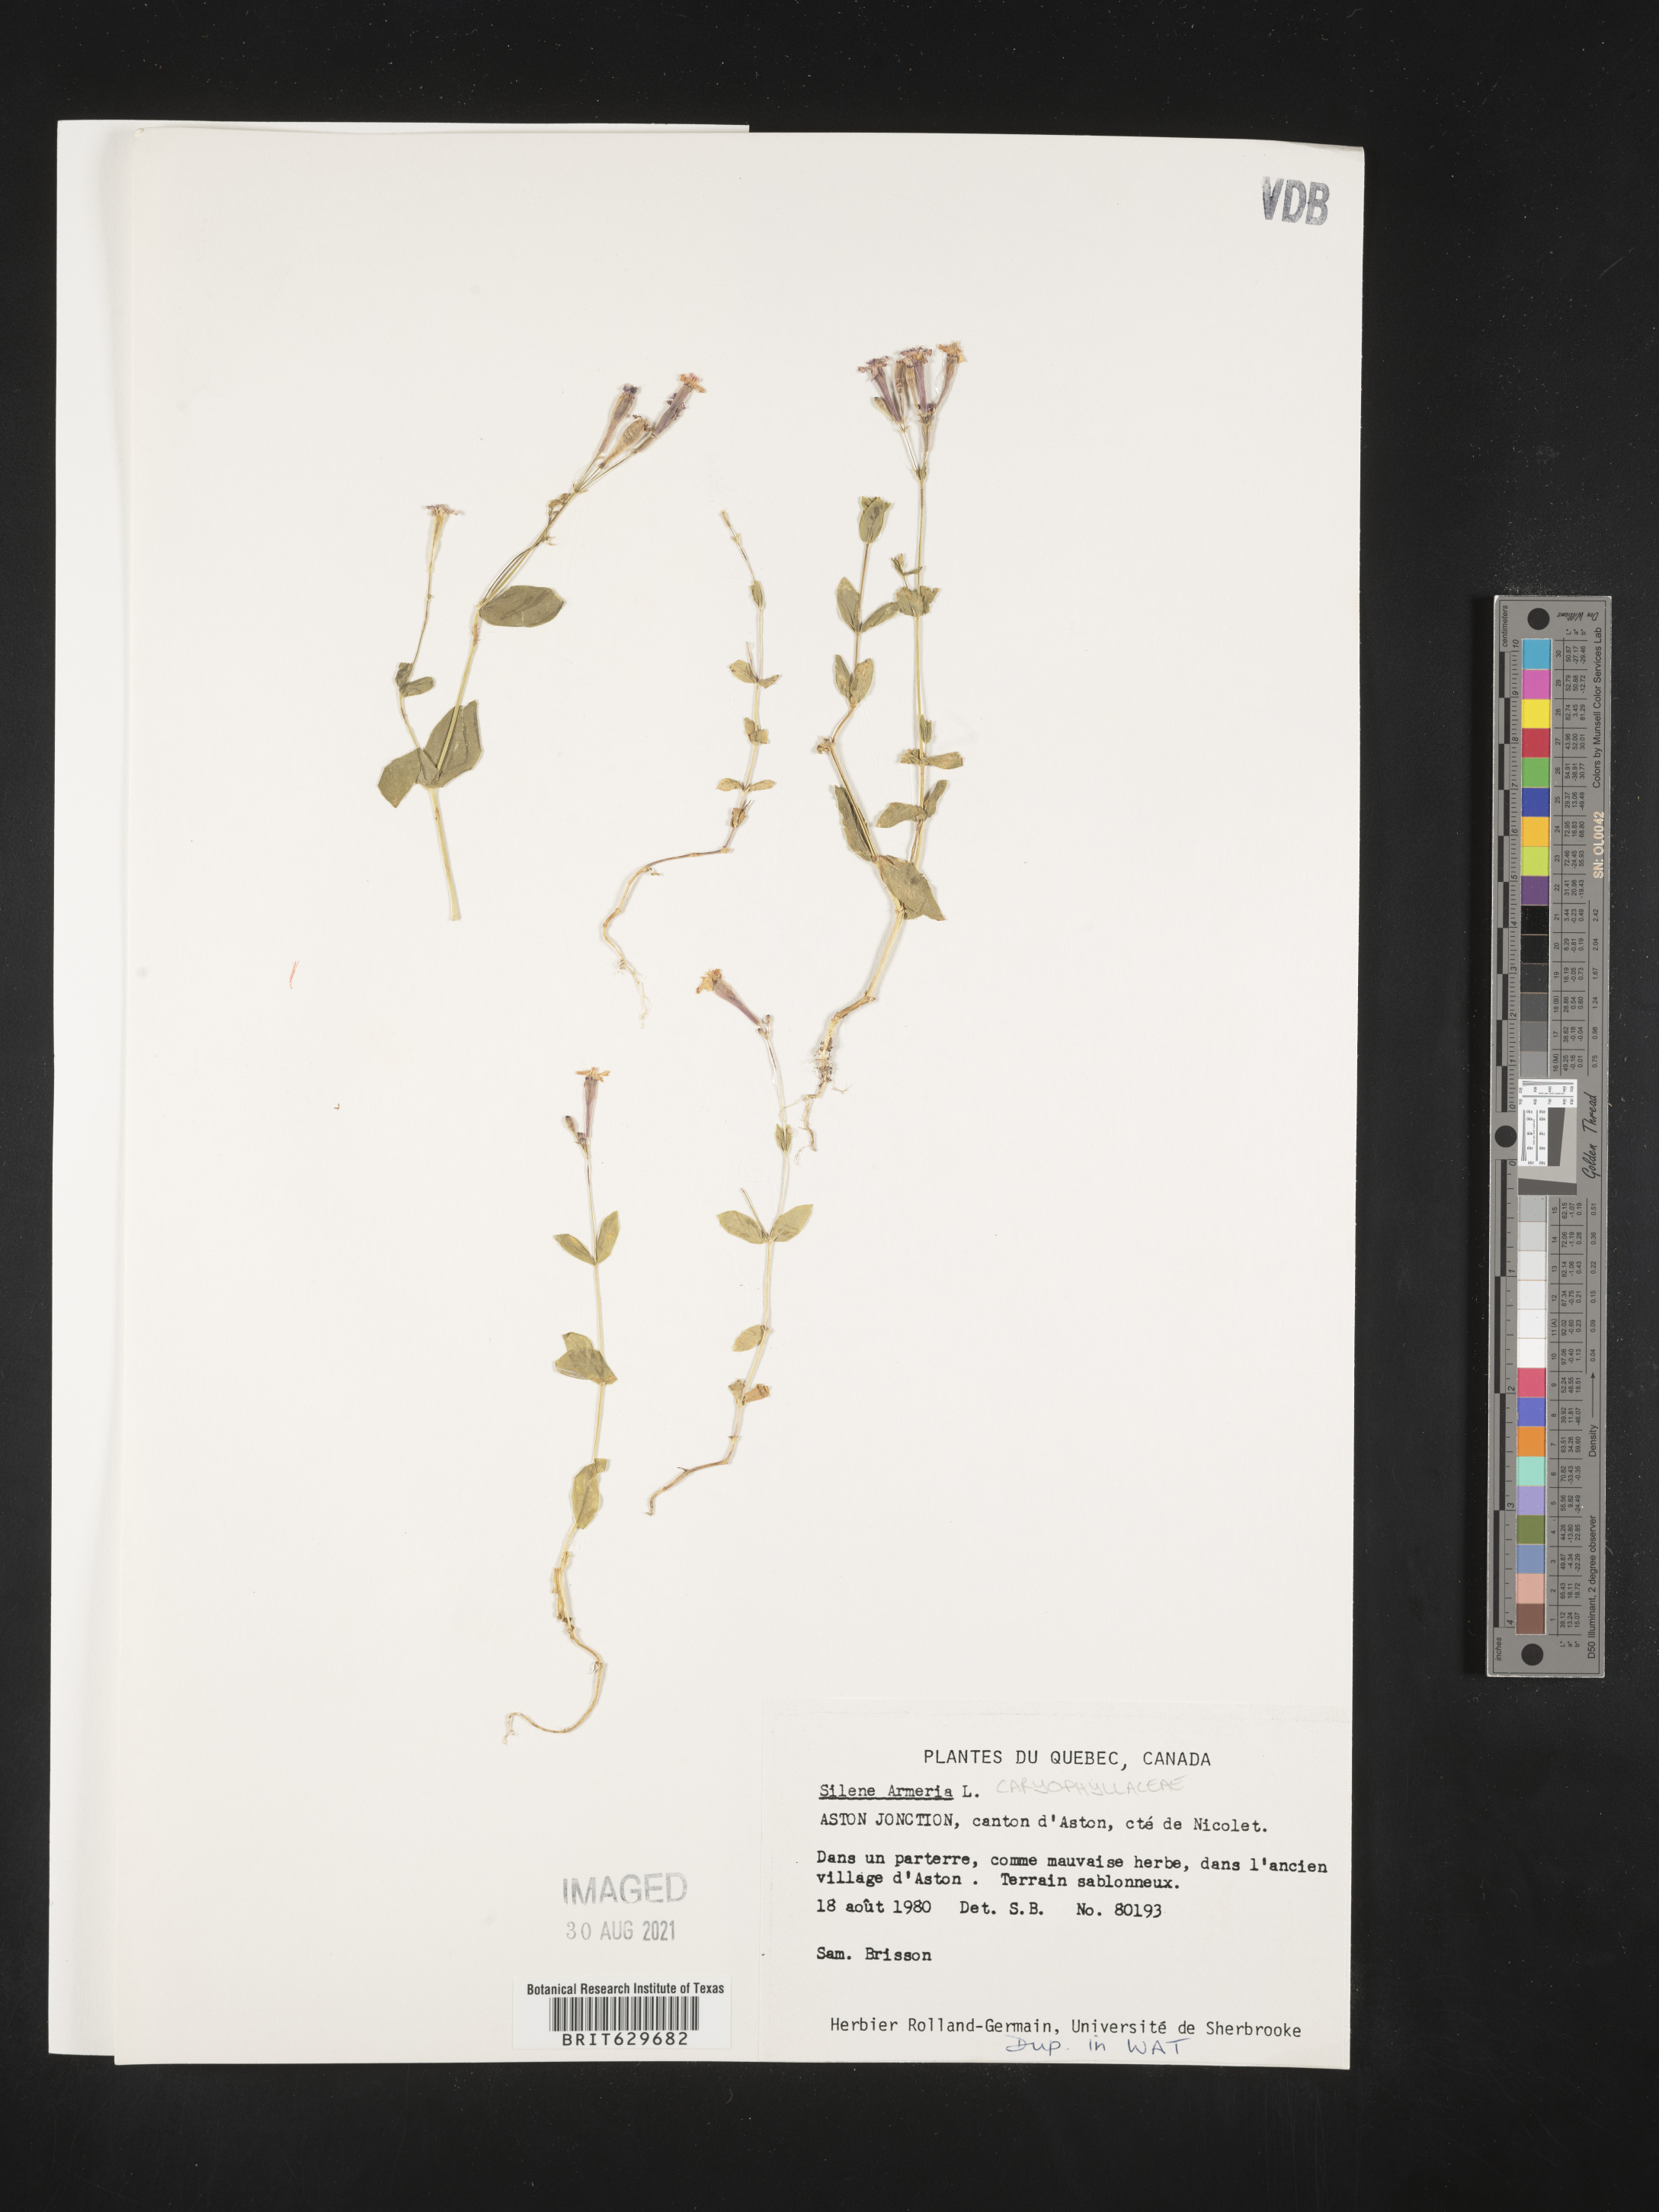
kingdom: Plantae
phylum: Tracheophyta
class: Magnoliopsida
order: Caryophyllales
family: Caryophyllaceae
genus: Atocion
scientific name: Atocion armeria
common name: Sweet william catchfly
